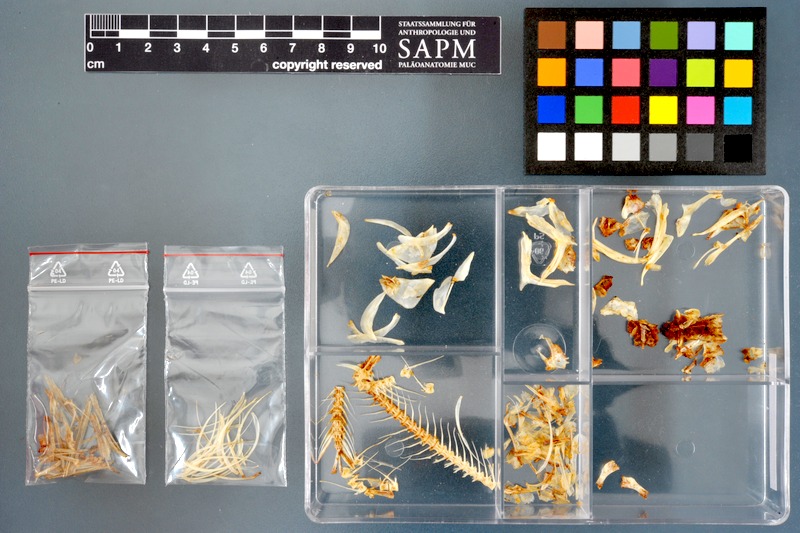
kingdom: Animalia
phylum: Chordata
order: Cypriniformes
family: Cyprinidae
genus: Raiamas
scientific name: Raiamas senegalensis
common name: Senegal minnow
